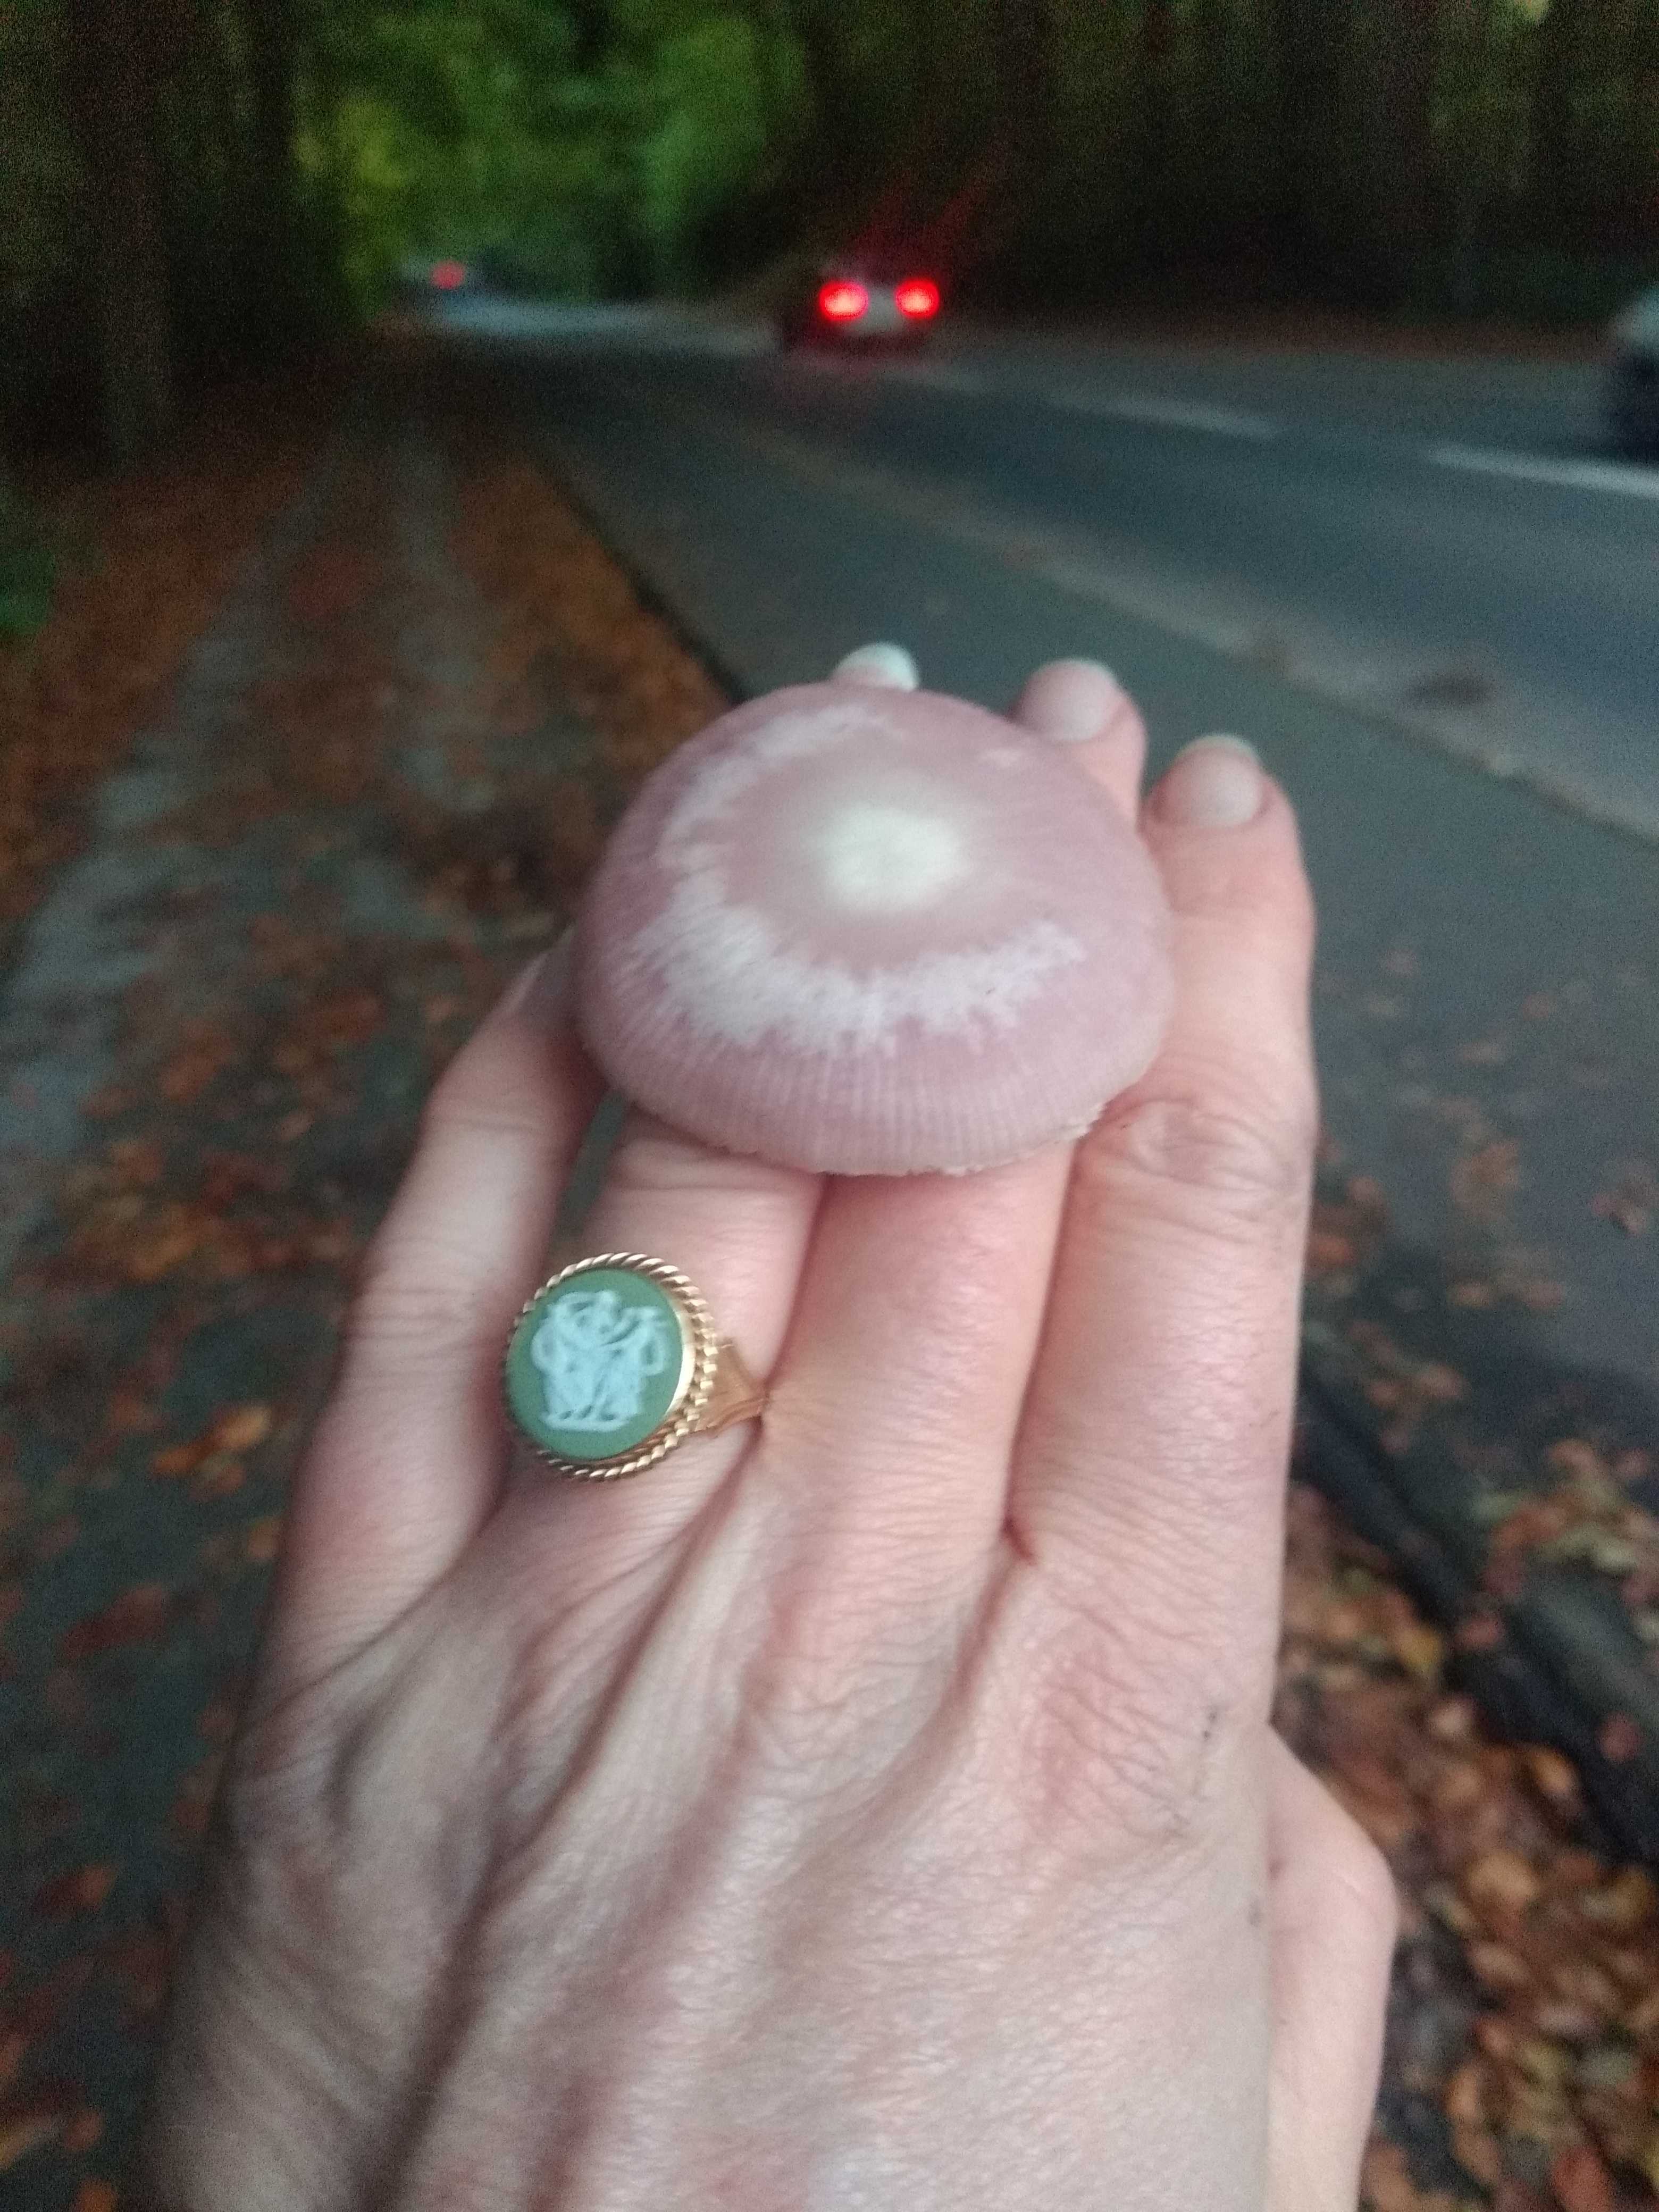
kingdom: Fungi
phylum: Basidiomycota
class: Agaricomycetes
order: Agaricales
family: Mycenaceae
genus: Mycena
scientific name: Mycena rosea
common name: rosa huesvamp
